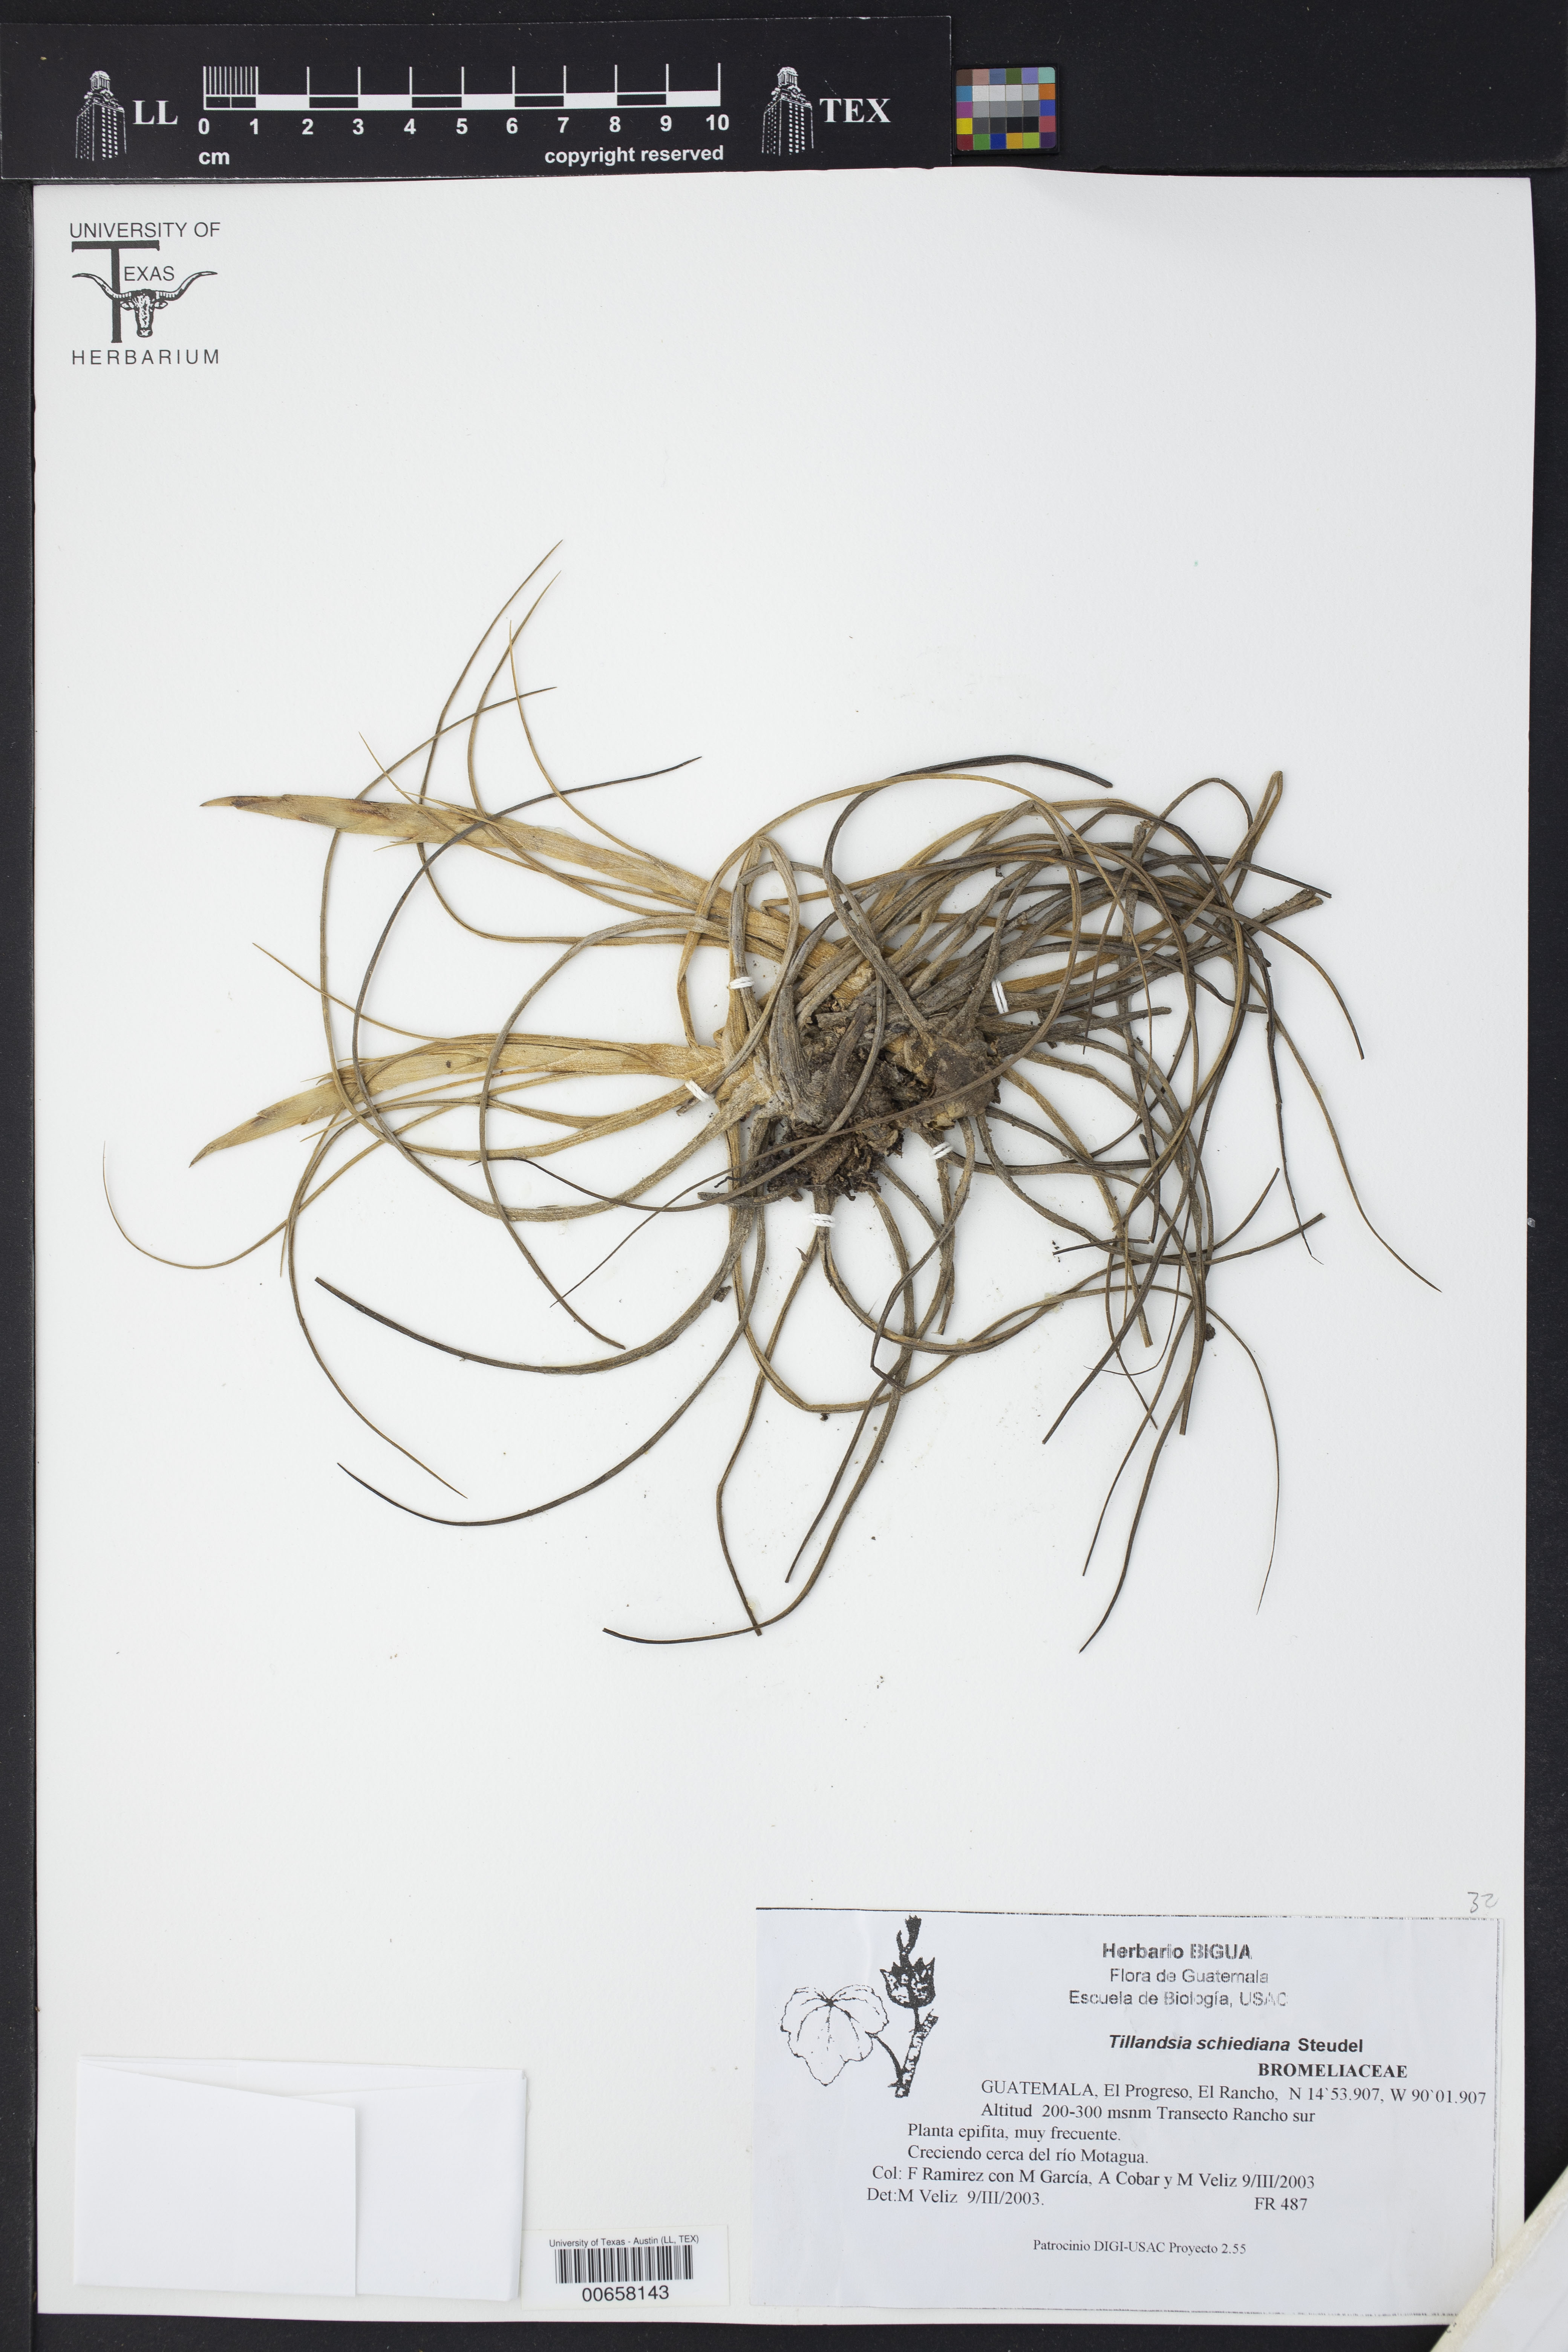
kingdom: Plantae
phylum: Tracheophyta
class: Liliopsida
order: Poales
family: Bromeliaceae
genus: Tillandsia
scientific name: Tillandsia schiedeana
